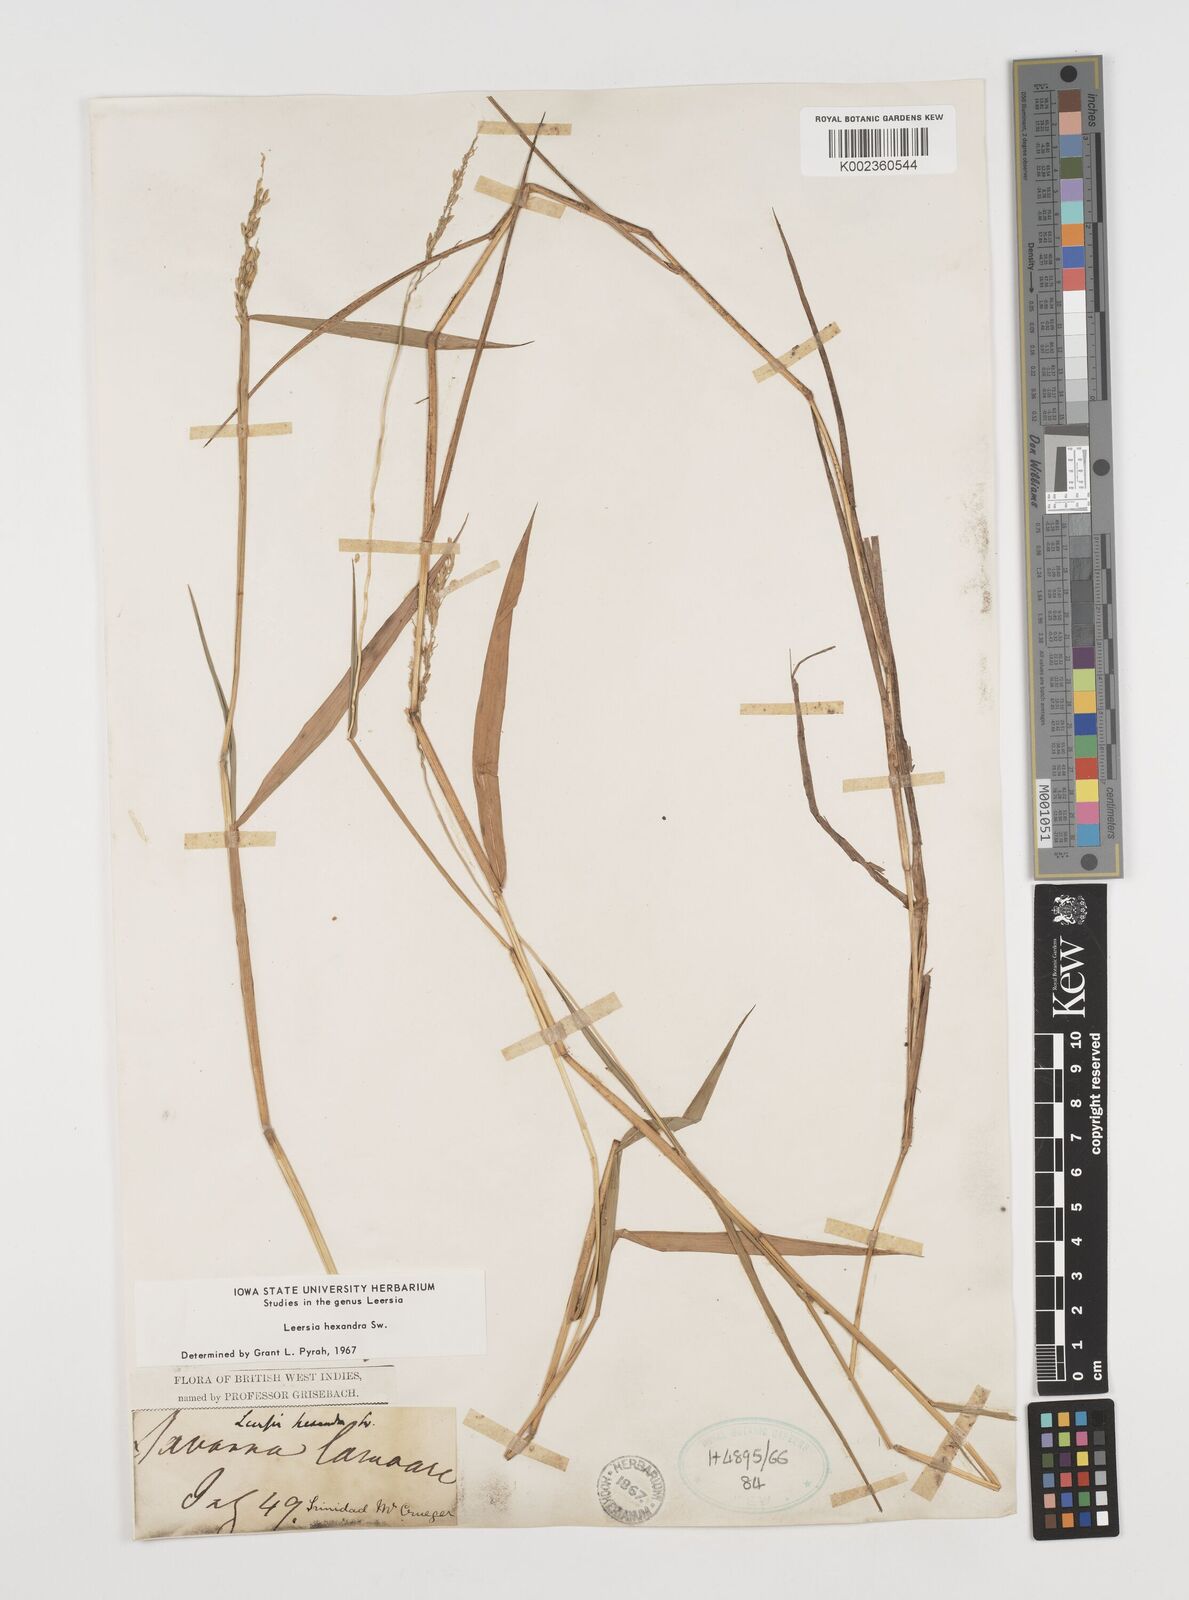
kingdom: Plantae
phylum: Tracheophyta
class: Liliopsida
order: Poales
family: Poaceae
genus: Leersia
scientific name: Leersia hexandra
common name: Southern cut grass
